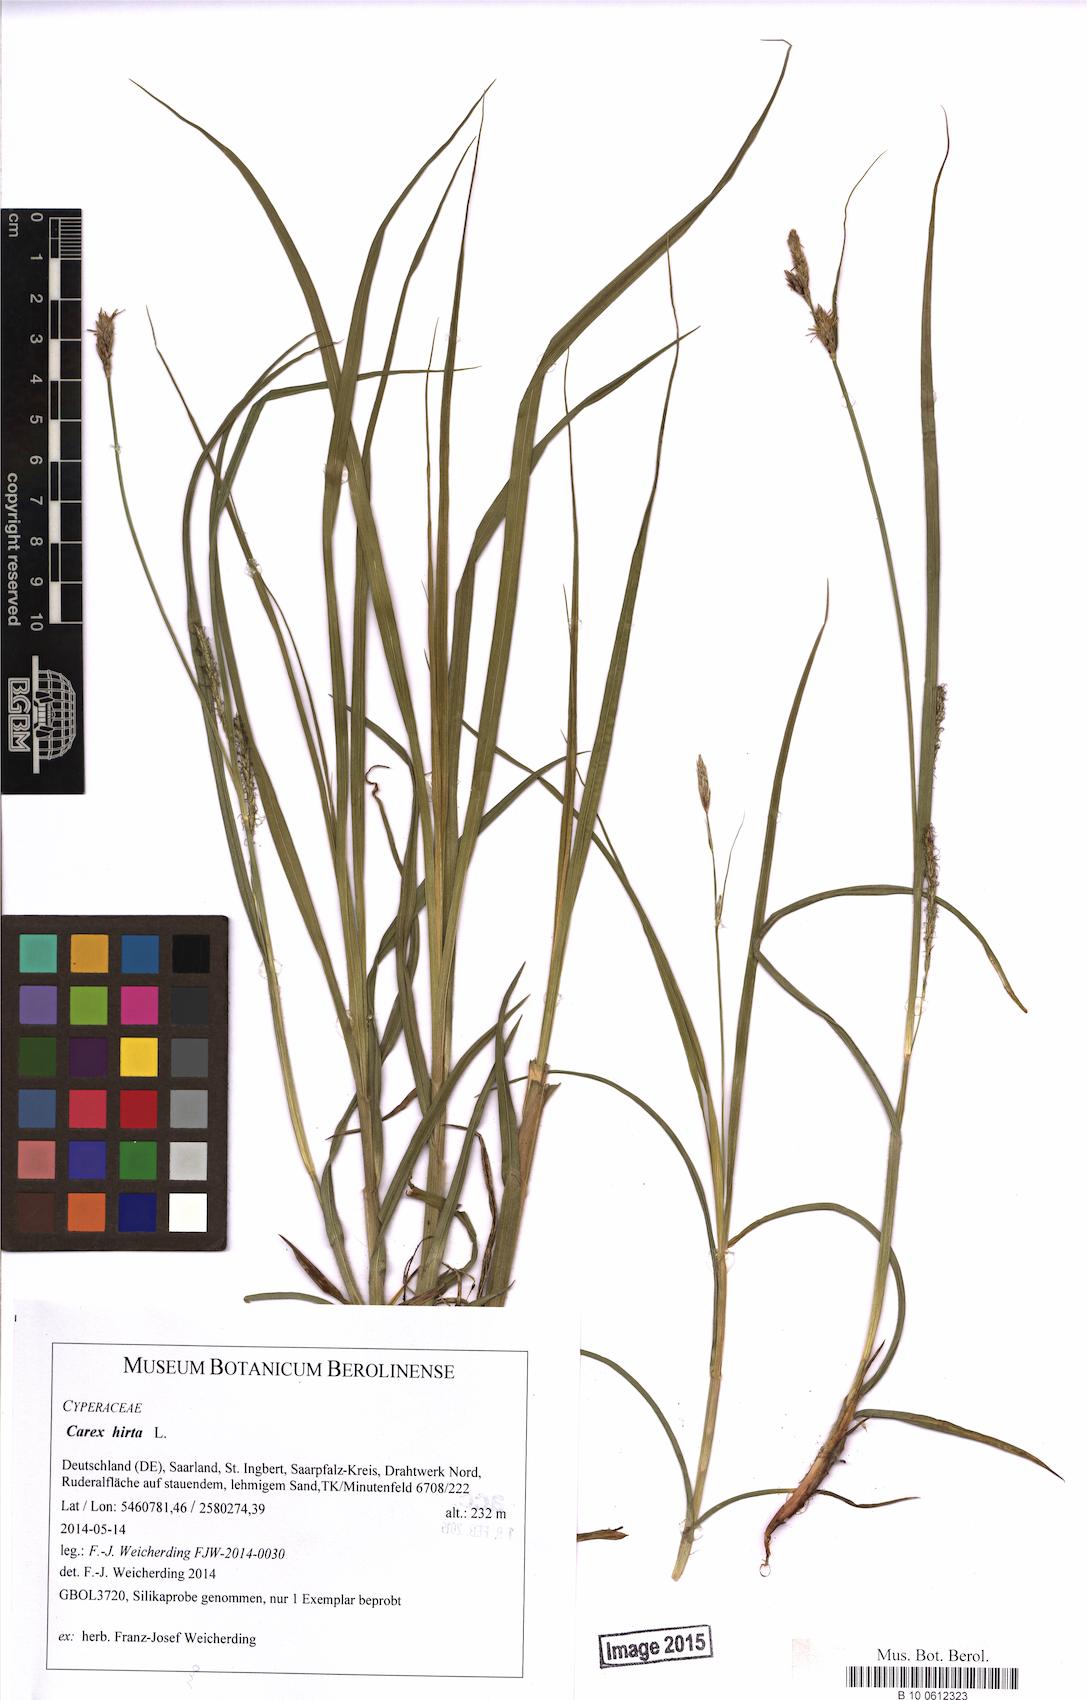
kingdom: Plantae
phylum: Tracheophyta
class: Liliopsida
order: Poales
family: Cyperaceae
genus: Carex
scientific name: Carex hirta
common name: Hairy sedge
